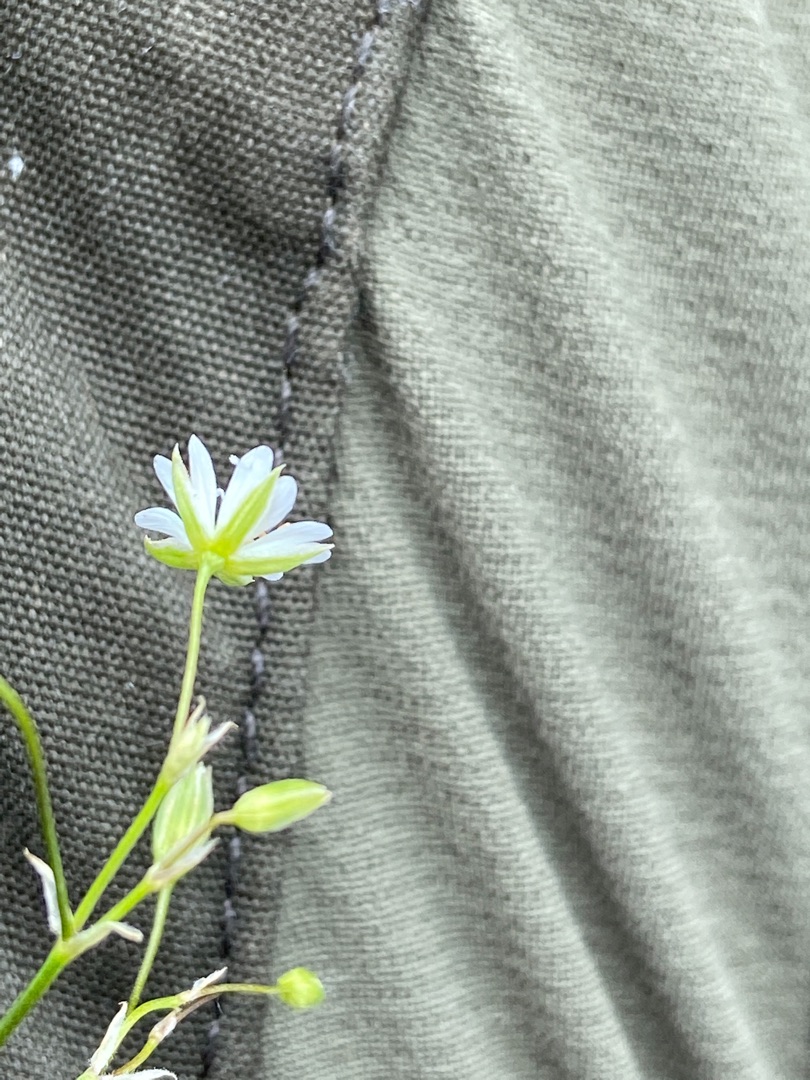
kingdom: Plantae
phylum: Tracheophyta
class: Magnoliopsida
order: Caryophyllales
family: Caryophyllaceae
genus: Stellaria
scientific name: Stellaria graminea
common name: Græsbladet fladstjerne
